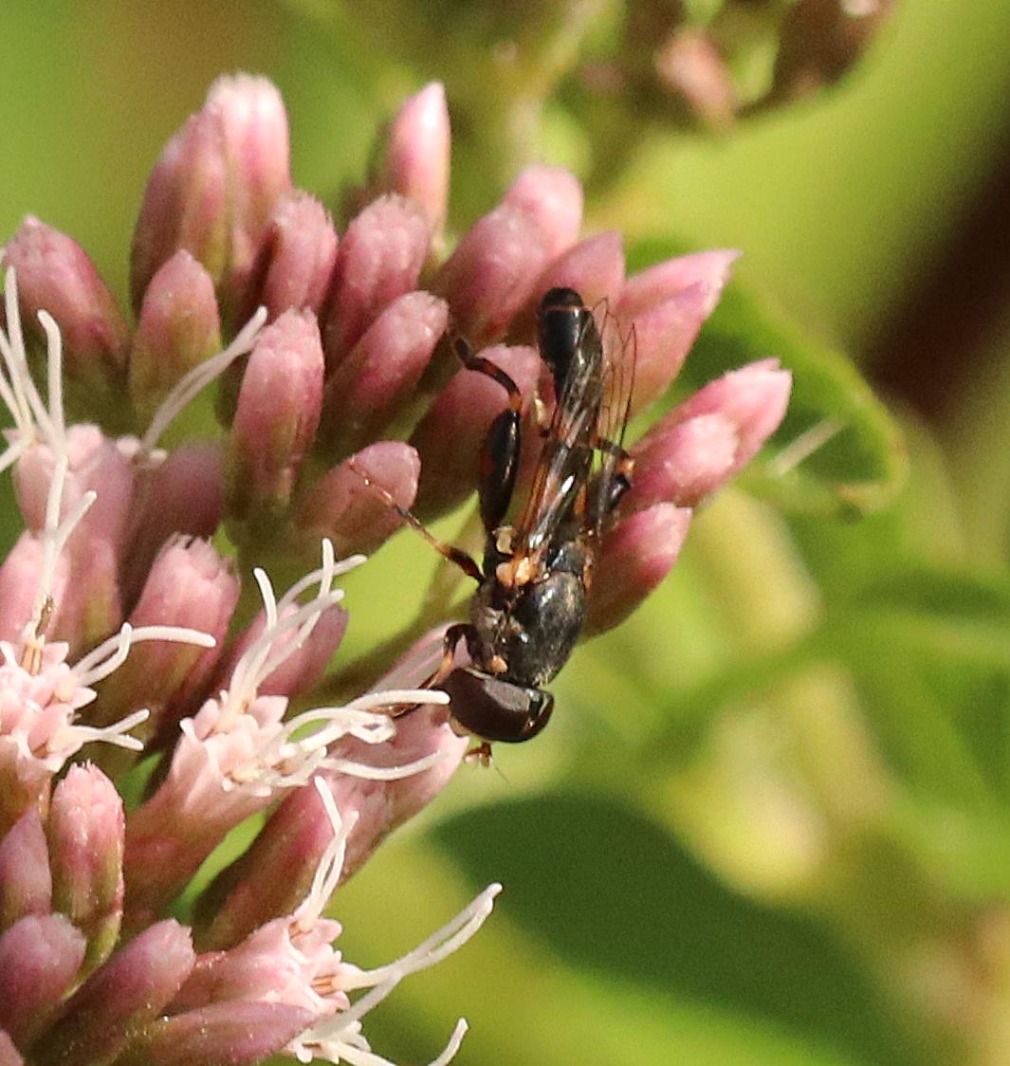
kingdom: Animalia
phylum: Arthropoda
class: Insecta
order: Diptera
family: Syrphidae
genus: Syritta
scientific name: Syritta pipiens
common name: Kompost-svirreflue
